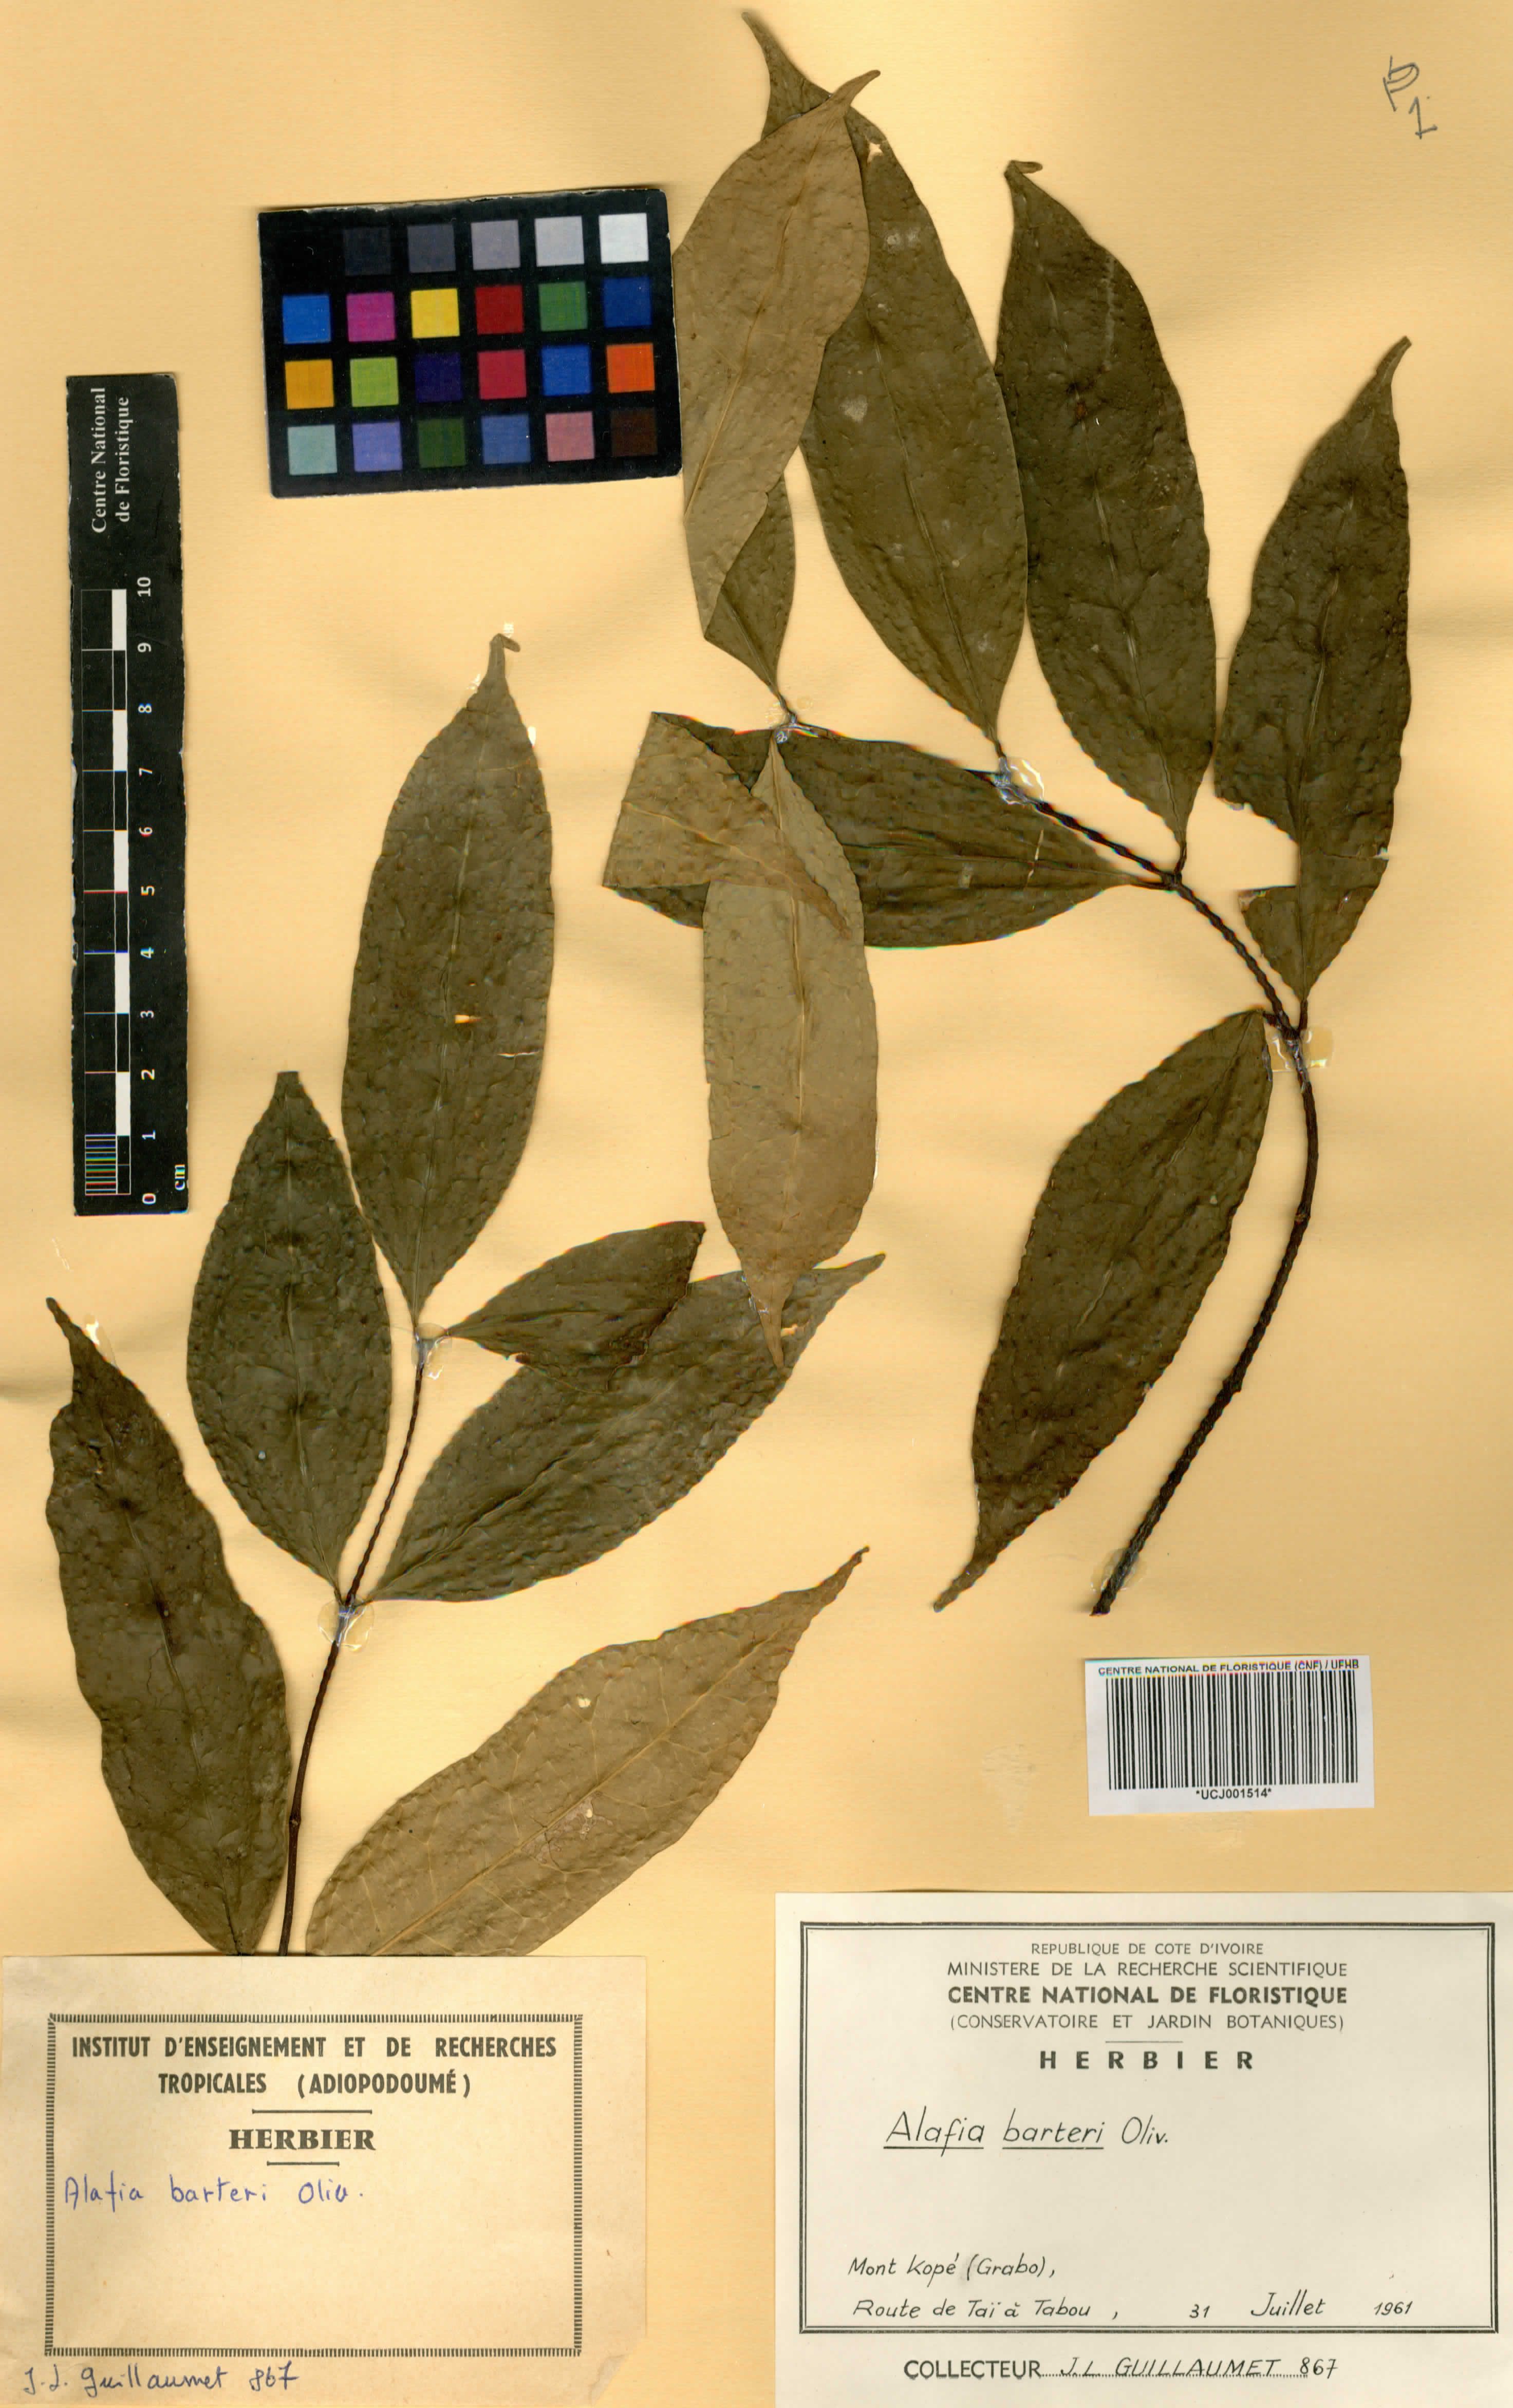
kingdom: Plantae
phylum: Tracheophyta
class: Magnoliopsida
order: Gentianales
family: Apocynaceae
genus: Alafia
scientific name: Alafia barteri
